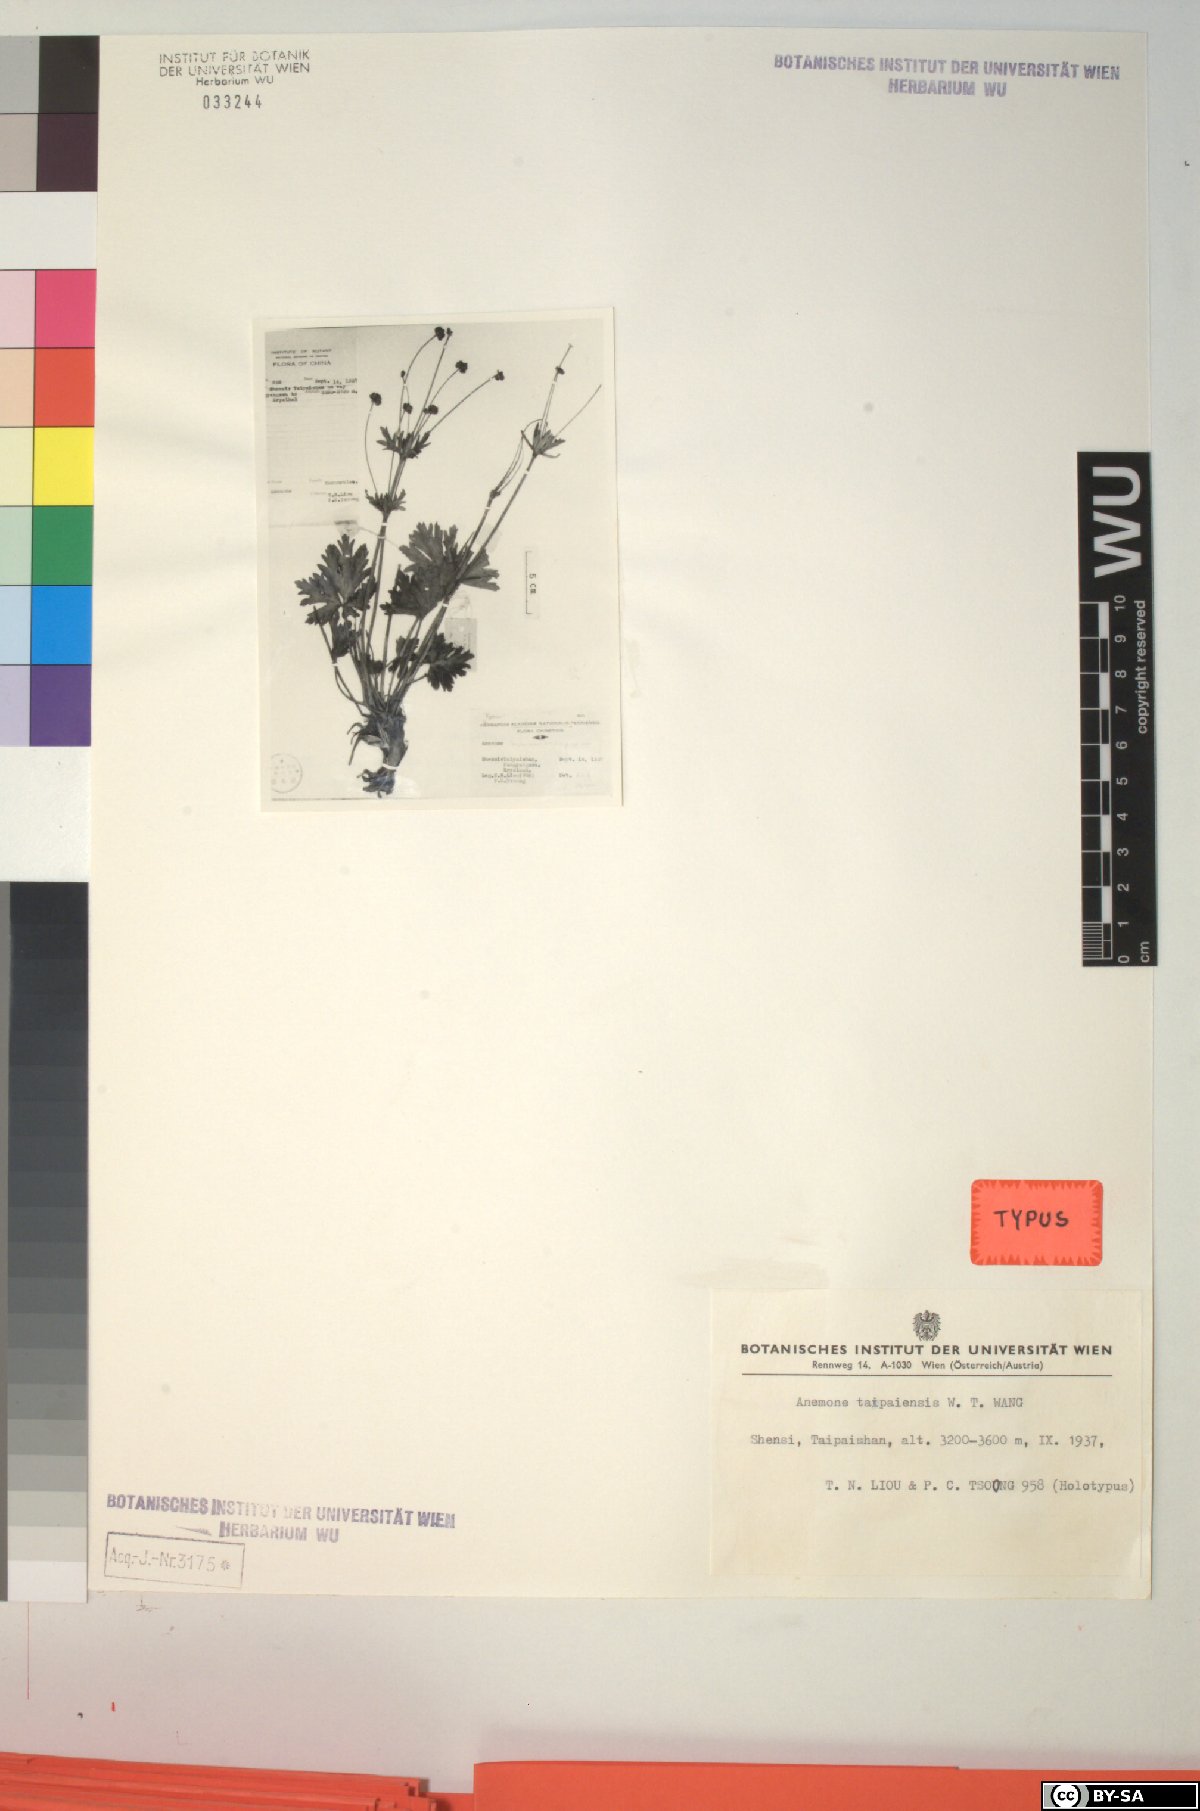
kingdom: Plantae
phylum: Tracheophyta
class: Magnoliopsida
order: Ranunculales
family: Ranunculaceae
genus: Anemone
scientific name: Anemone taipaiensis
